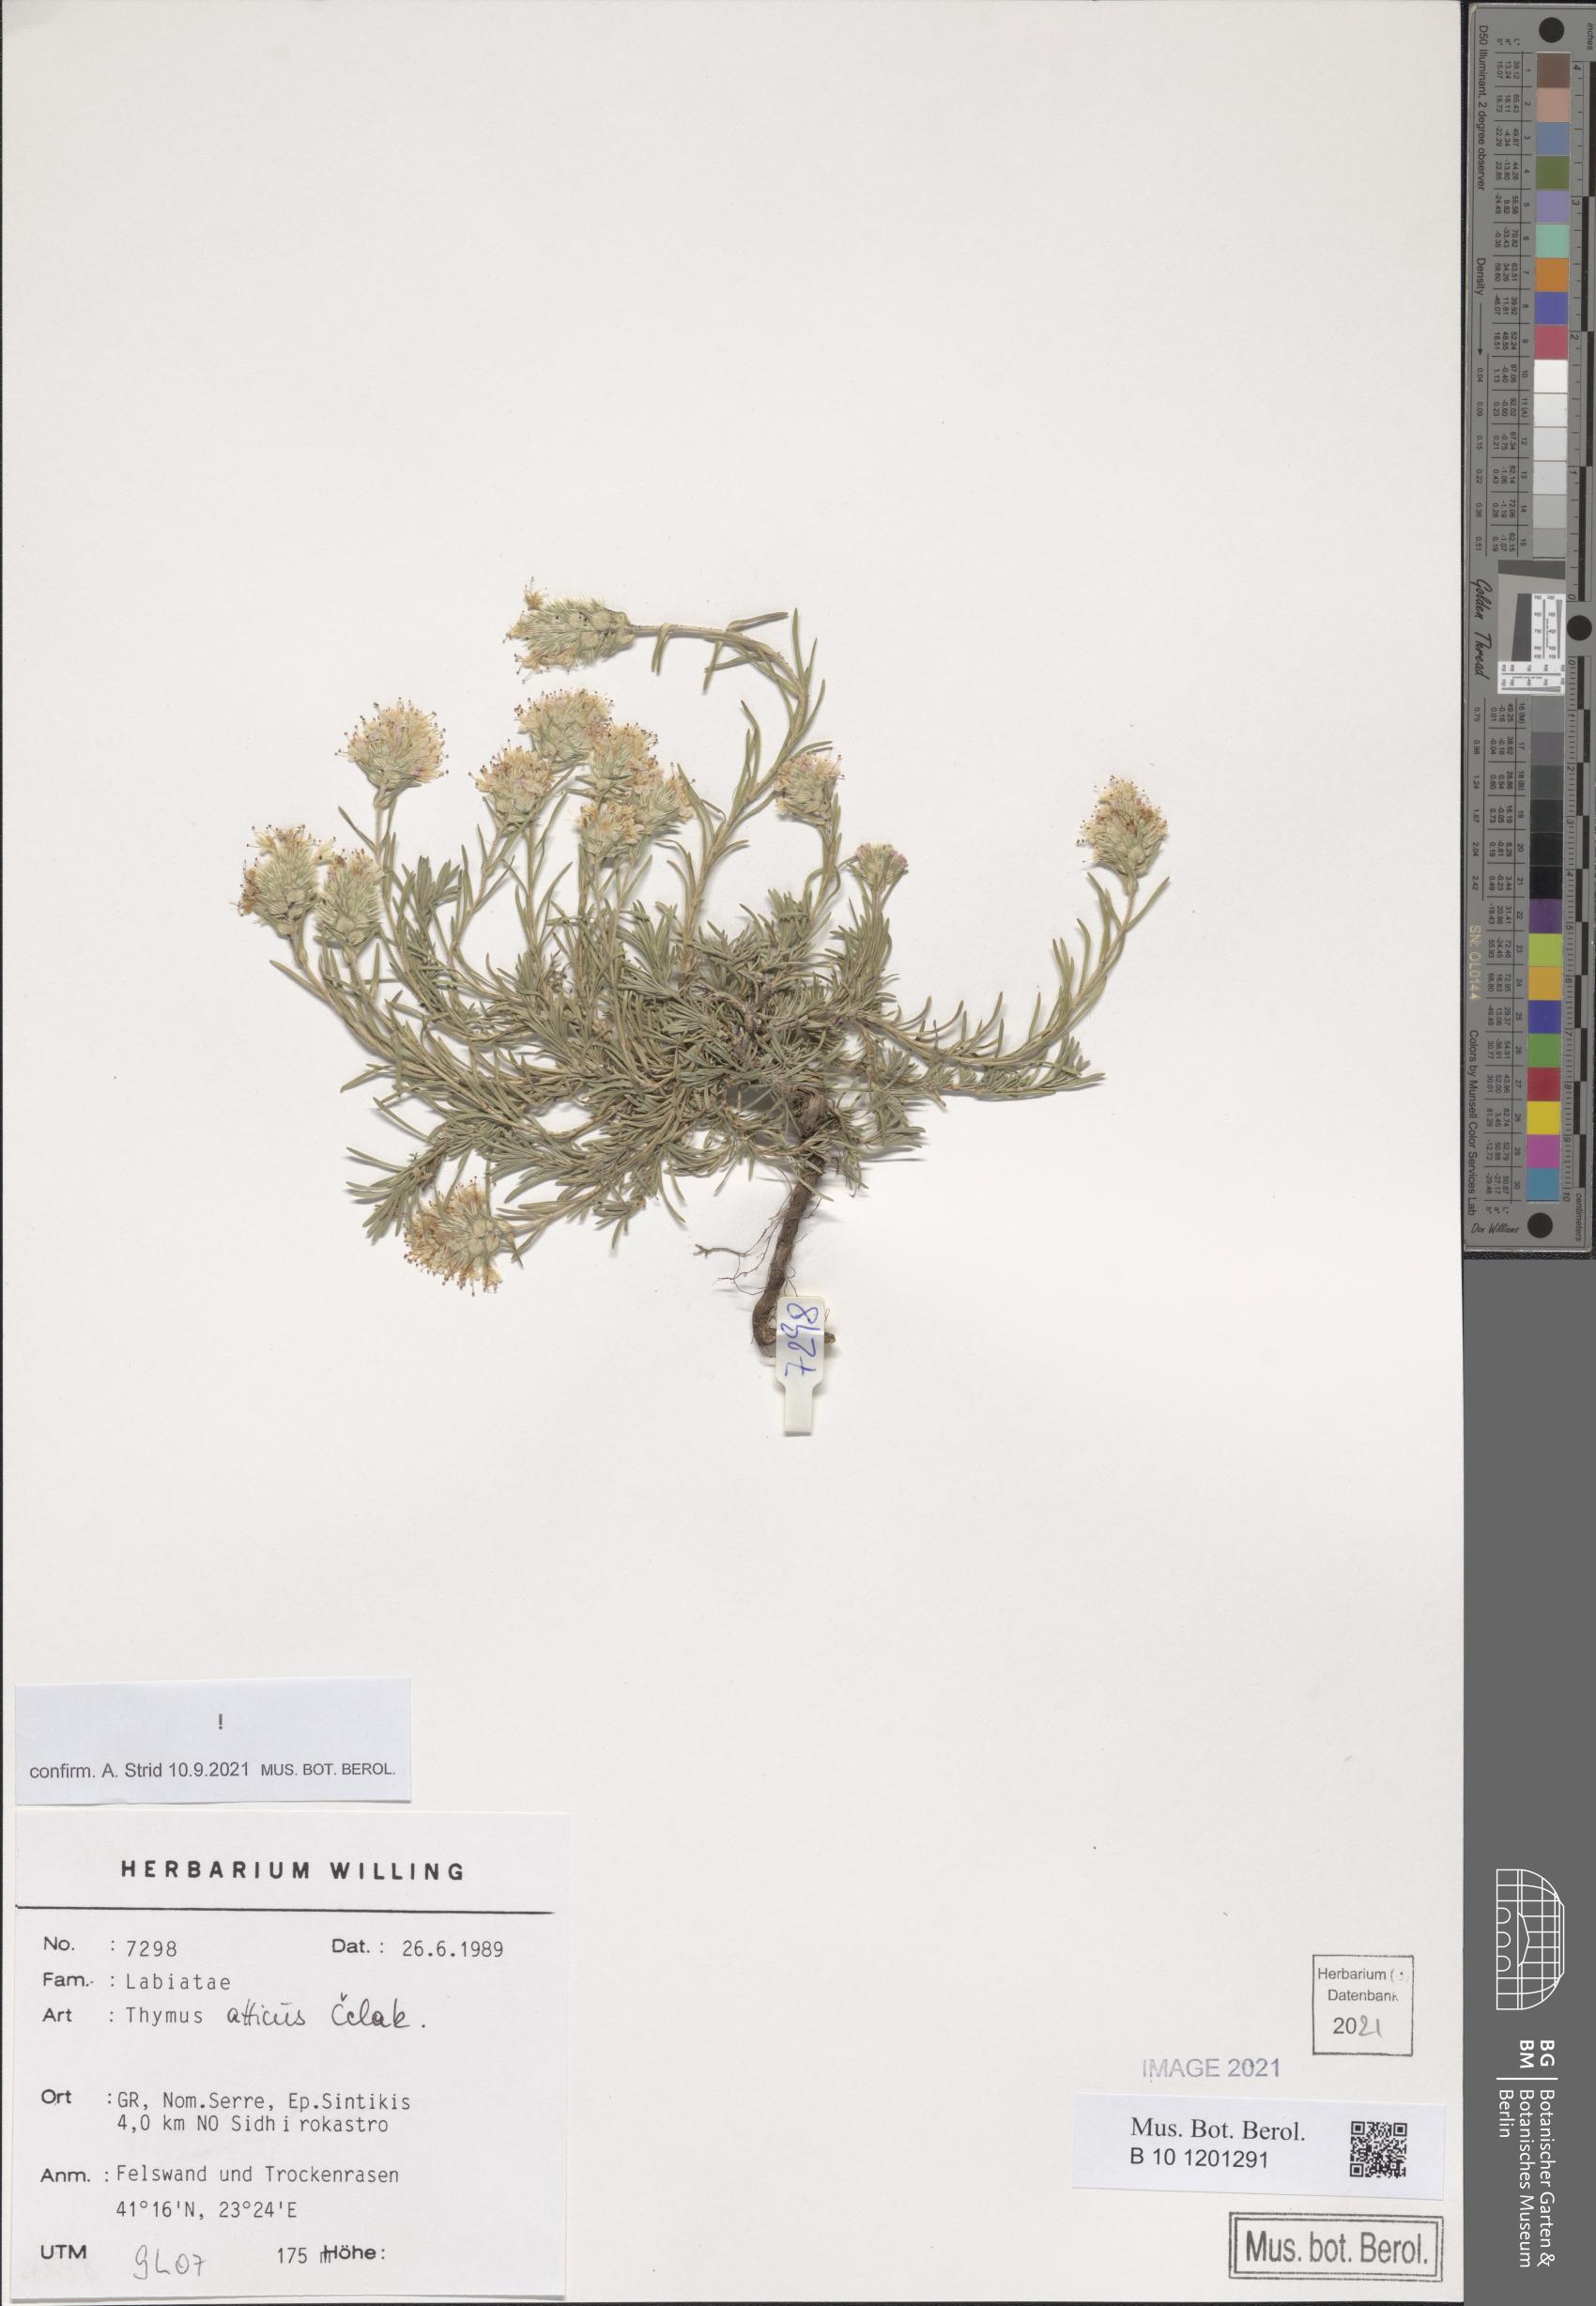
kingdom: Plantae
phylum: Tracheophyta
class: Magnoliopsida
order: Lamiales
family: Lamiaceae
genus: Thymus
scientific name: Thymus atticus
